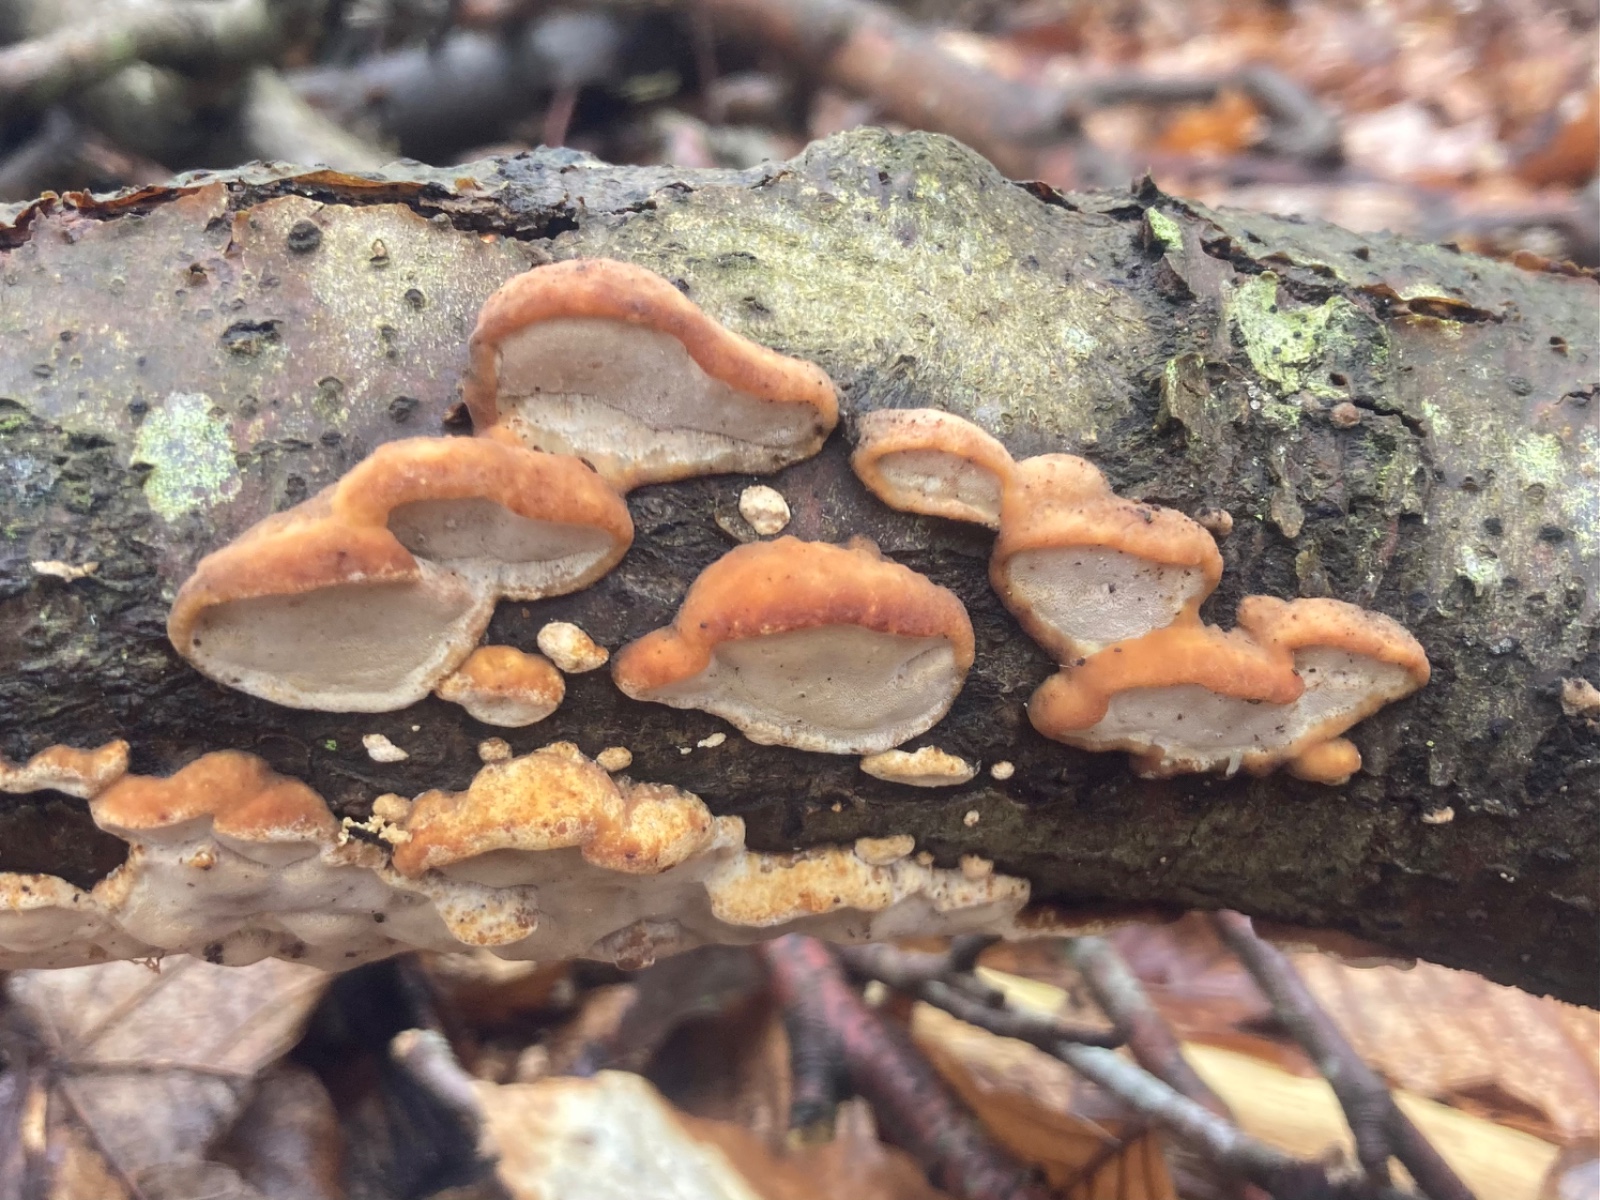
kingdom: Fungi
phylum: Basidiomycota
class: Agaricomycetes
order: Polyporales
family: Incrustoporiaceae
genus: Skeletocutis
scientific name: Skeletocutis nemoralis
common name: stor krystalporesvamp
